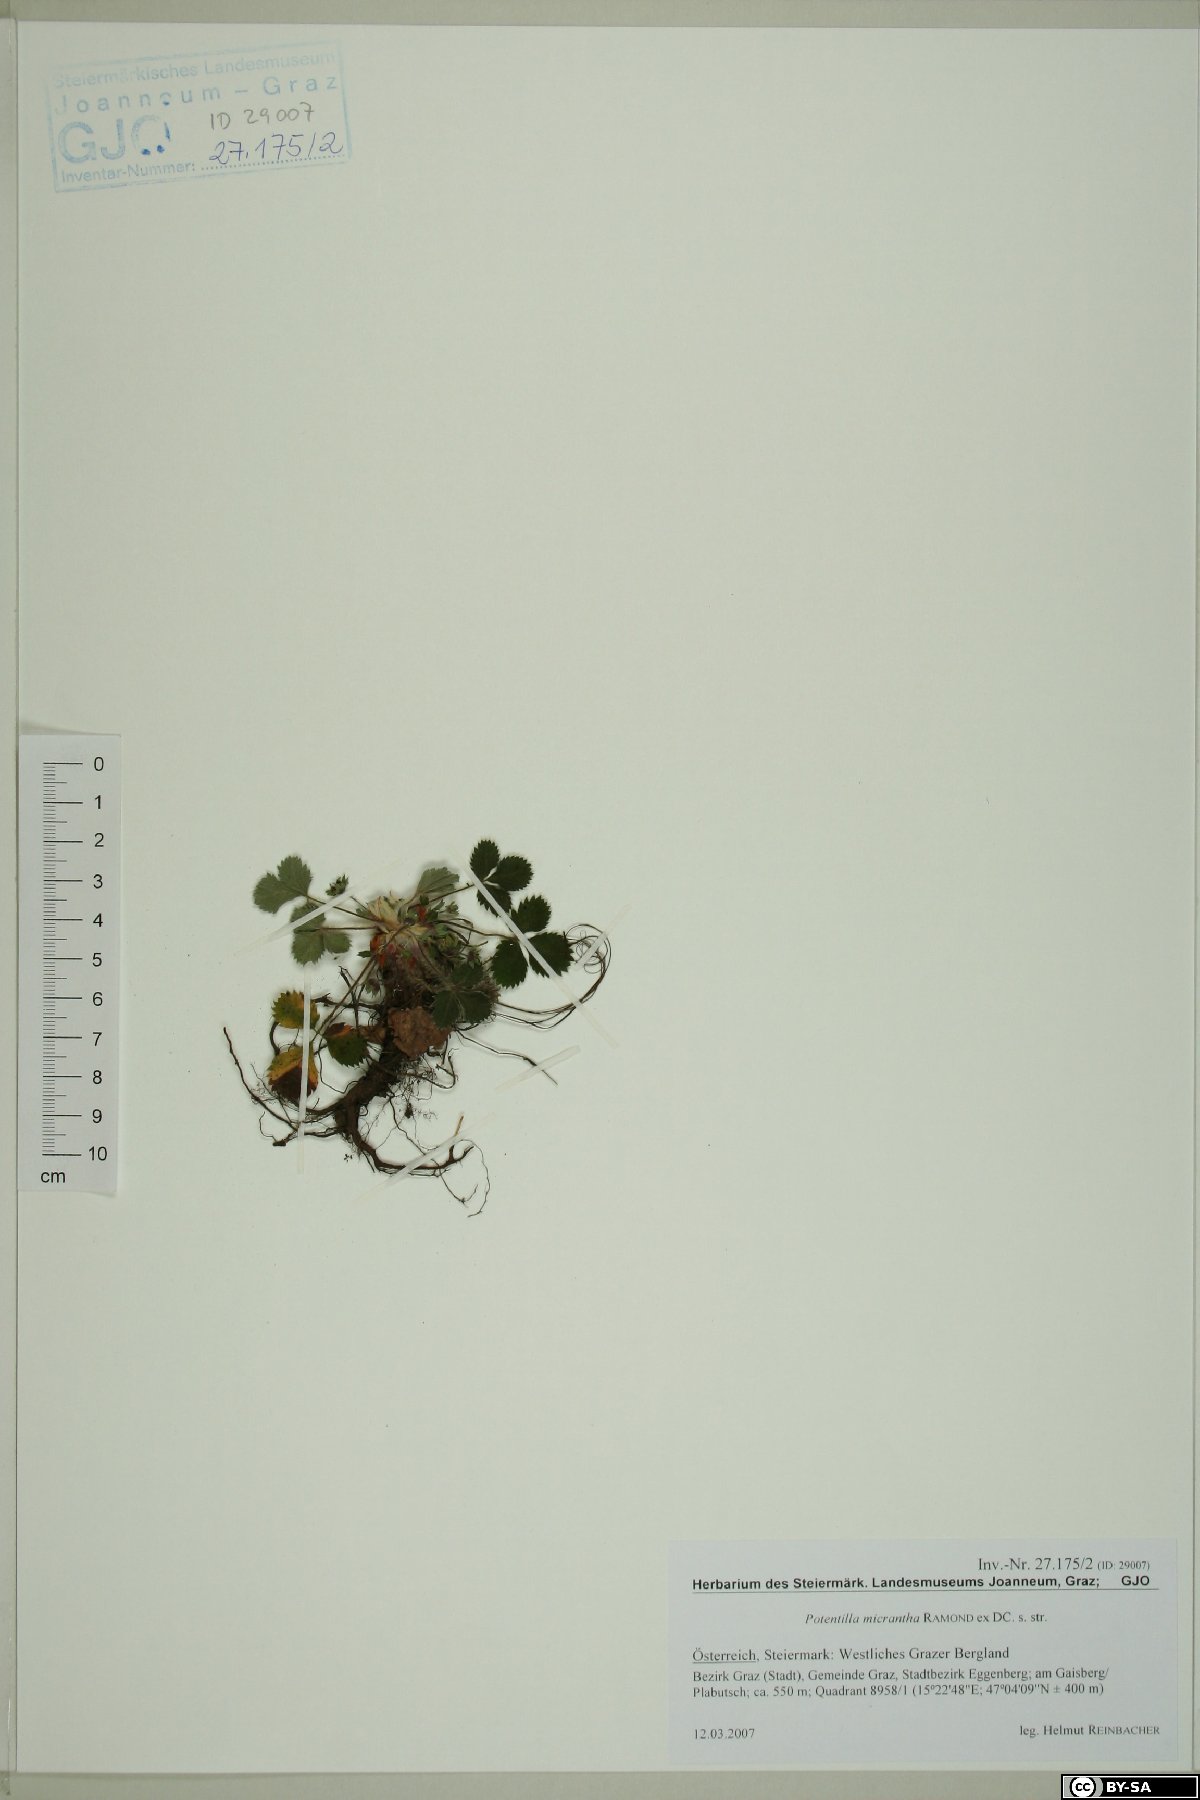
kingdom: Plantae
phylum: Tracheophyta
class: Magnoliopsida
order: Rosales
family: Rosaceae
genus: Potentilla
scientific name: Potentilla micrantha
